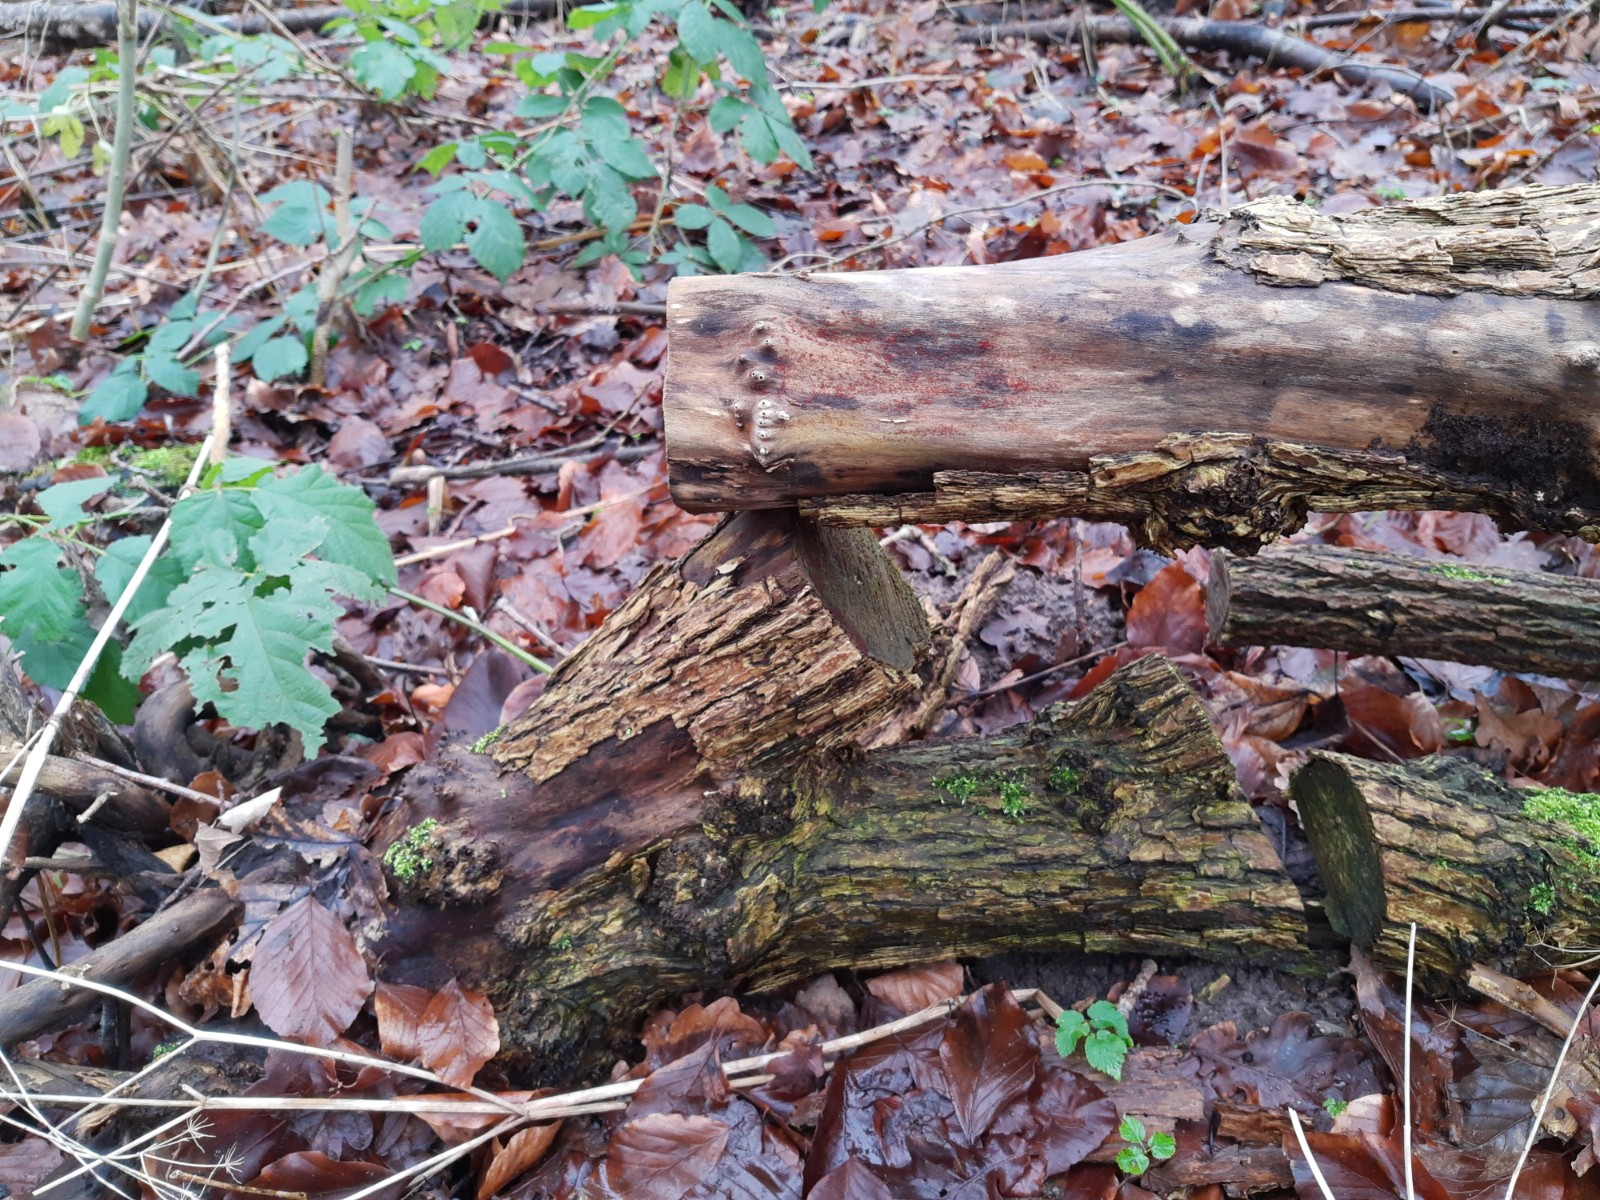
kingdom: Fungi
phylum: Ascomycota
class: Sordariomycetes
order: Hypocreales
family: Nectriaceae
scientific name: Nectriaceae
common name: cinnobersvampfamilien
